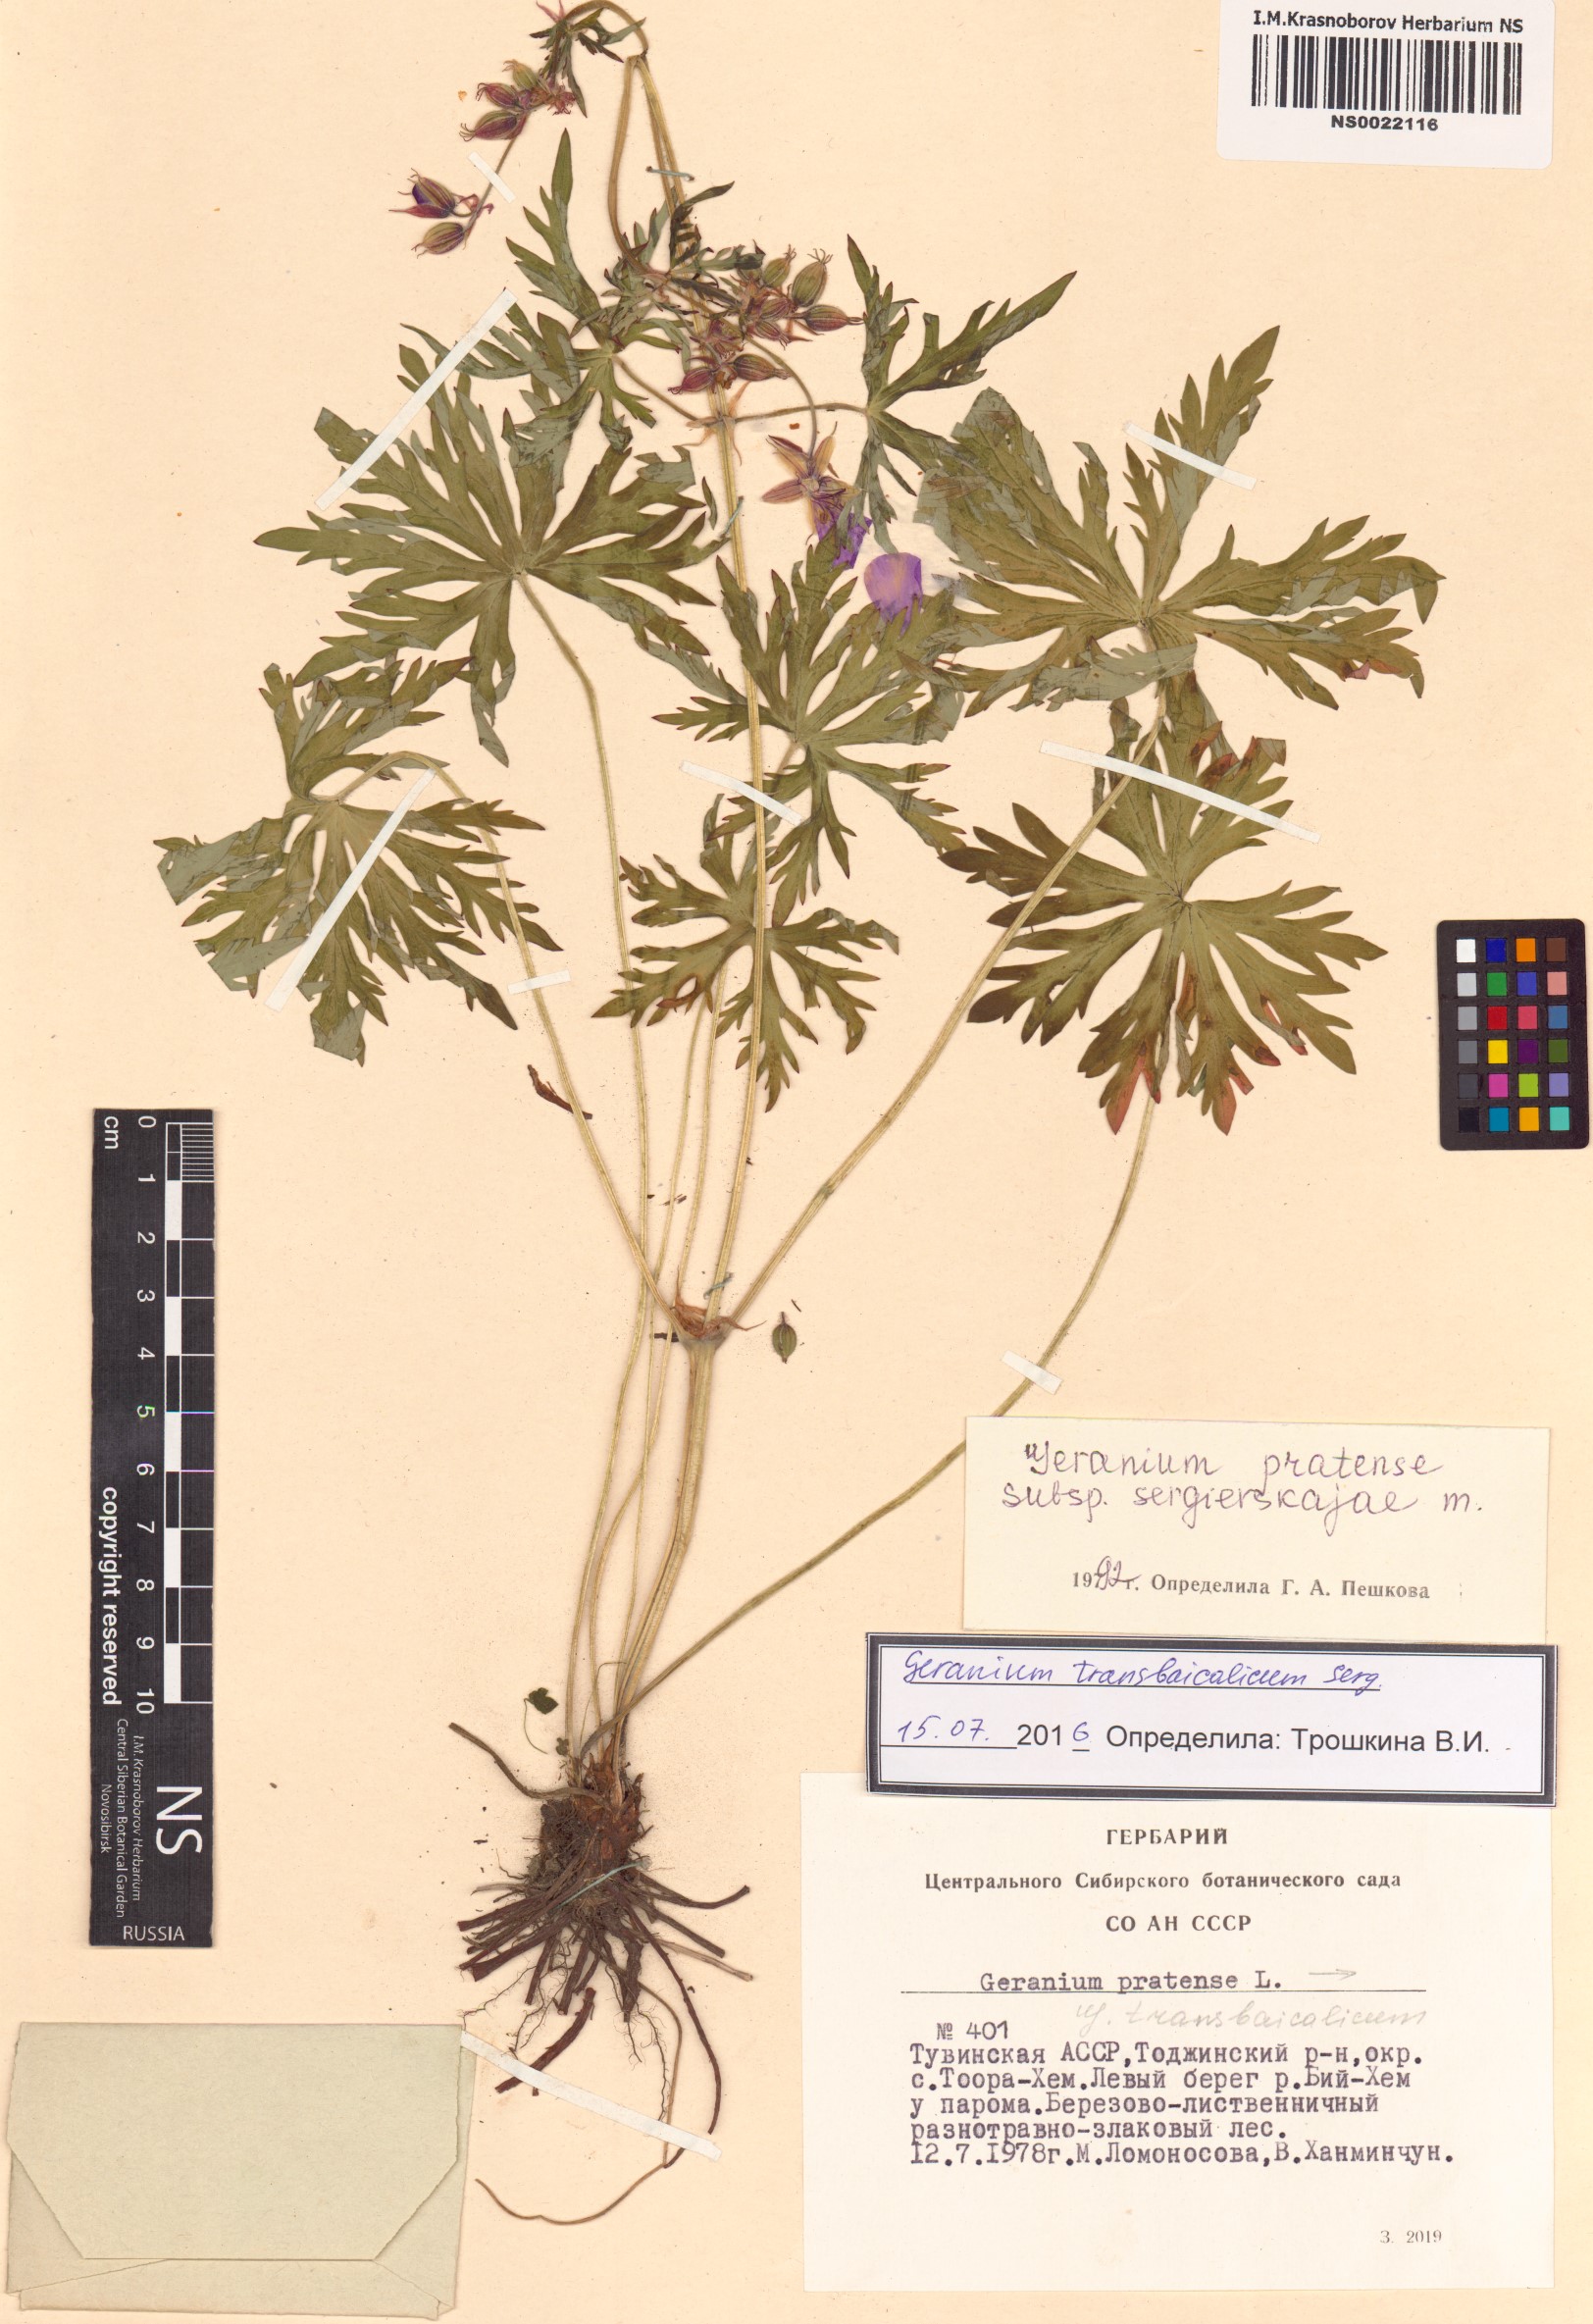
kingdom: Plantae
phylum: Tracheophyta
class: Magnoliopsida
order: Geraniales
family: Geraniaceae
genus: Geranium
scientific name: Geranium pratense
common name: Meadow crane's-bill
